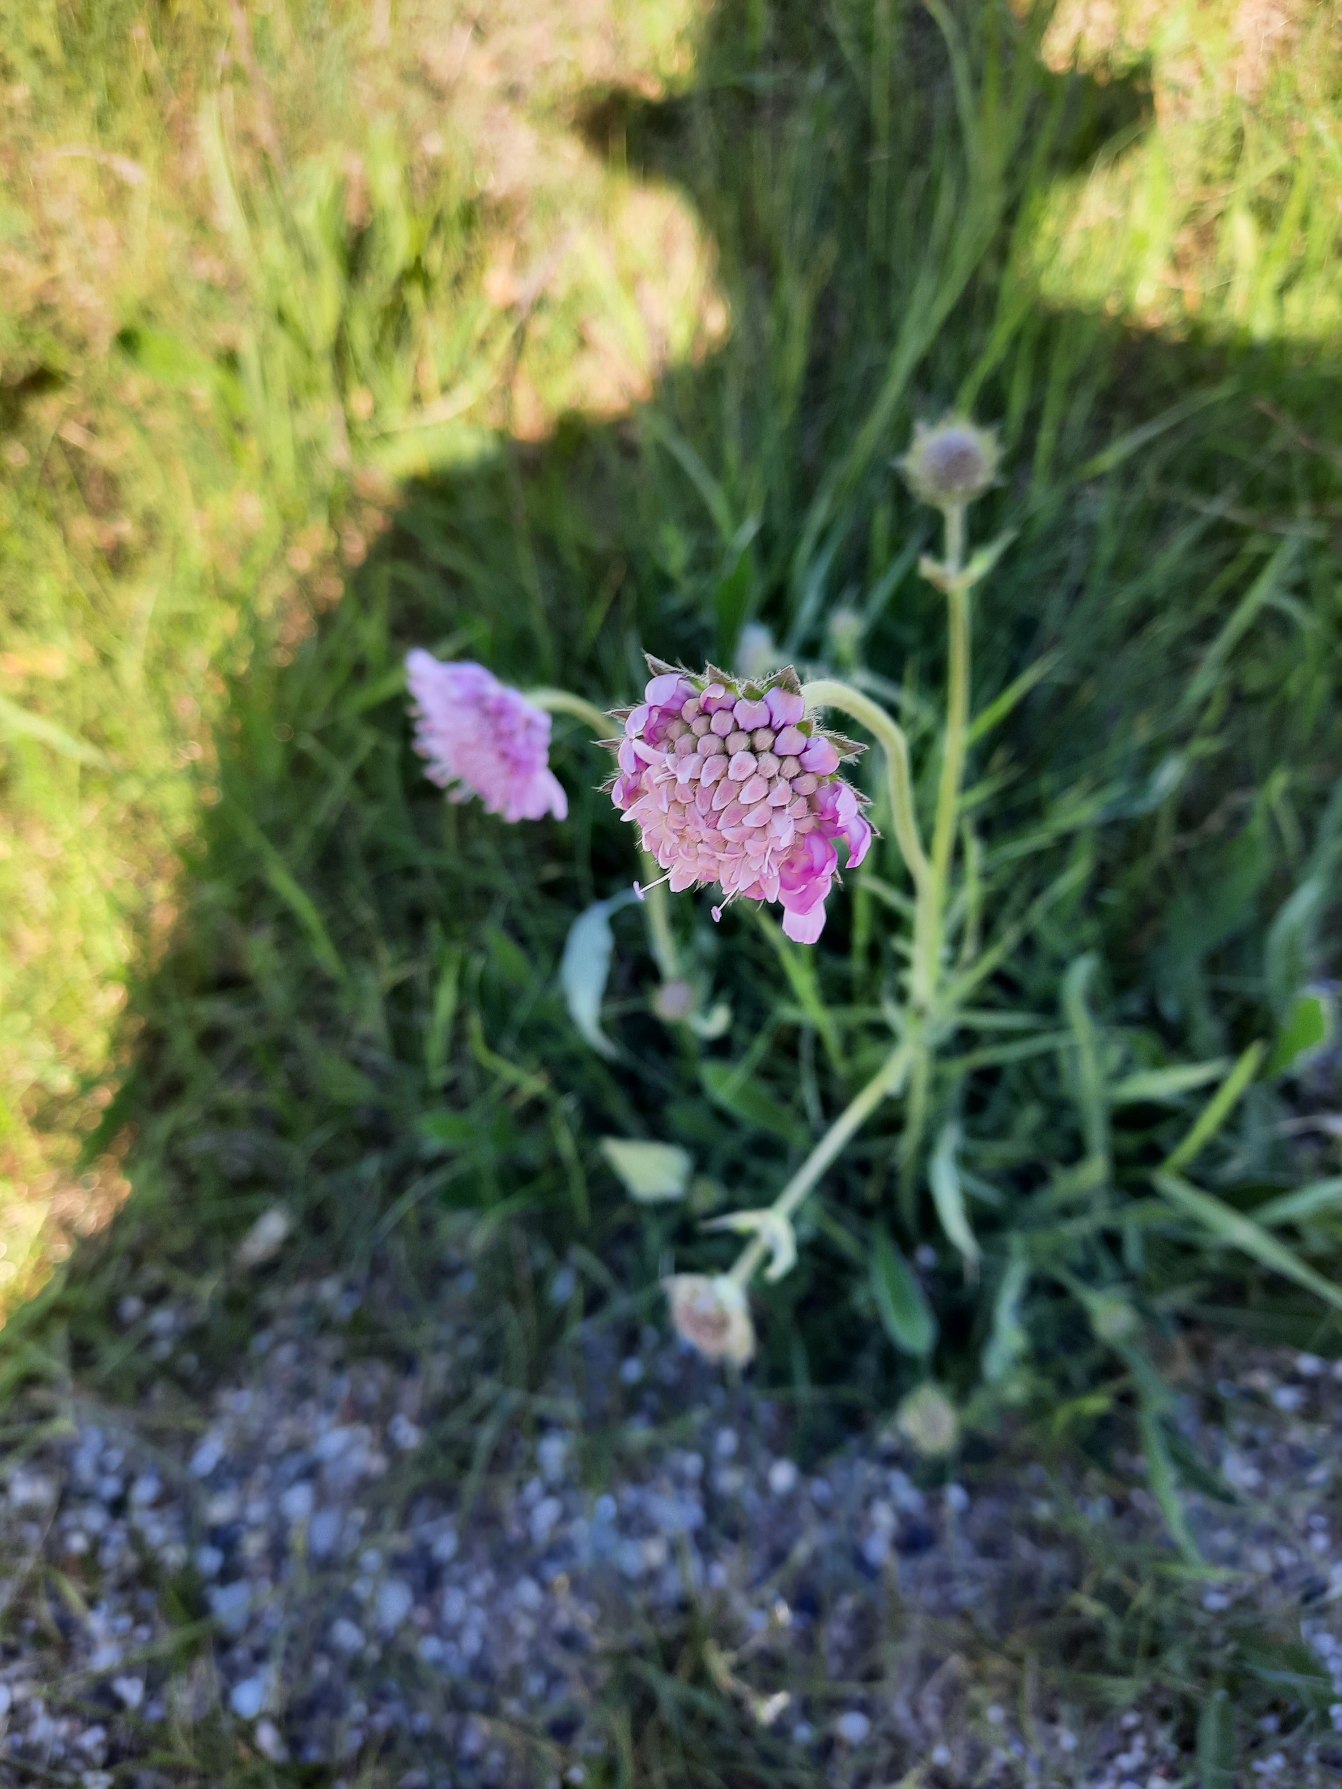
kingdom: Plantae
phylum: Tracheophyta
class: Magnoliopsida
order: Dipsacales
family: Caprifoliaceae
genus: Knautia
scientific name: Knautia arvensis
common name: Blåhat
